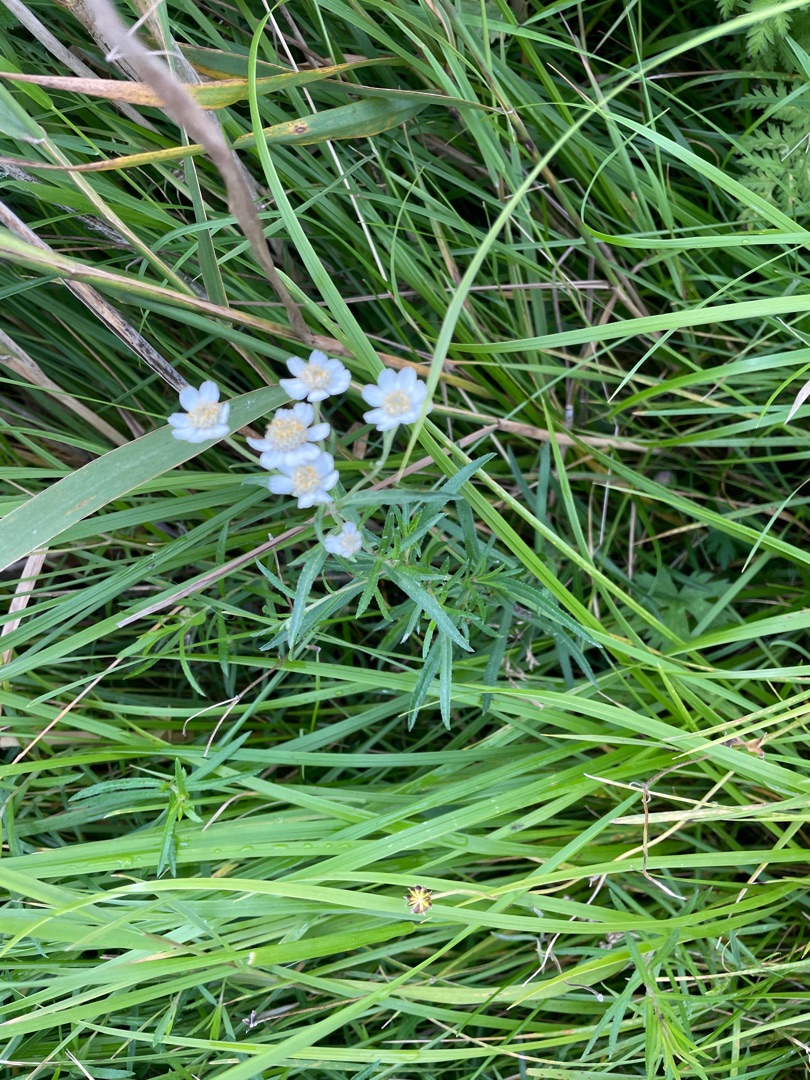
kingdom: Plantae
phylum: Tracheophyta
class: Magnoliopsida
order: Asterales
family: Asteraceae
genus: Achillea
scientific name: Achillea ptarmica
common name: Nyse-røllike
